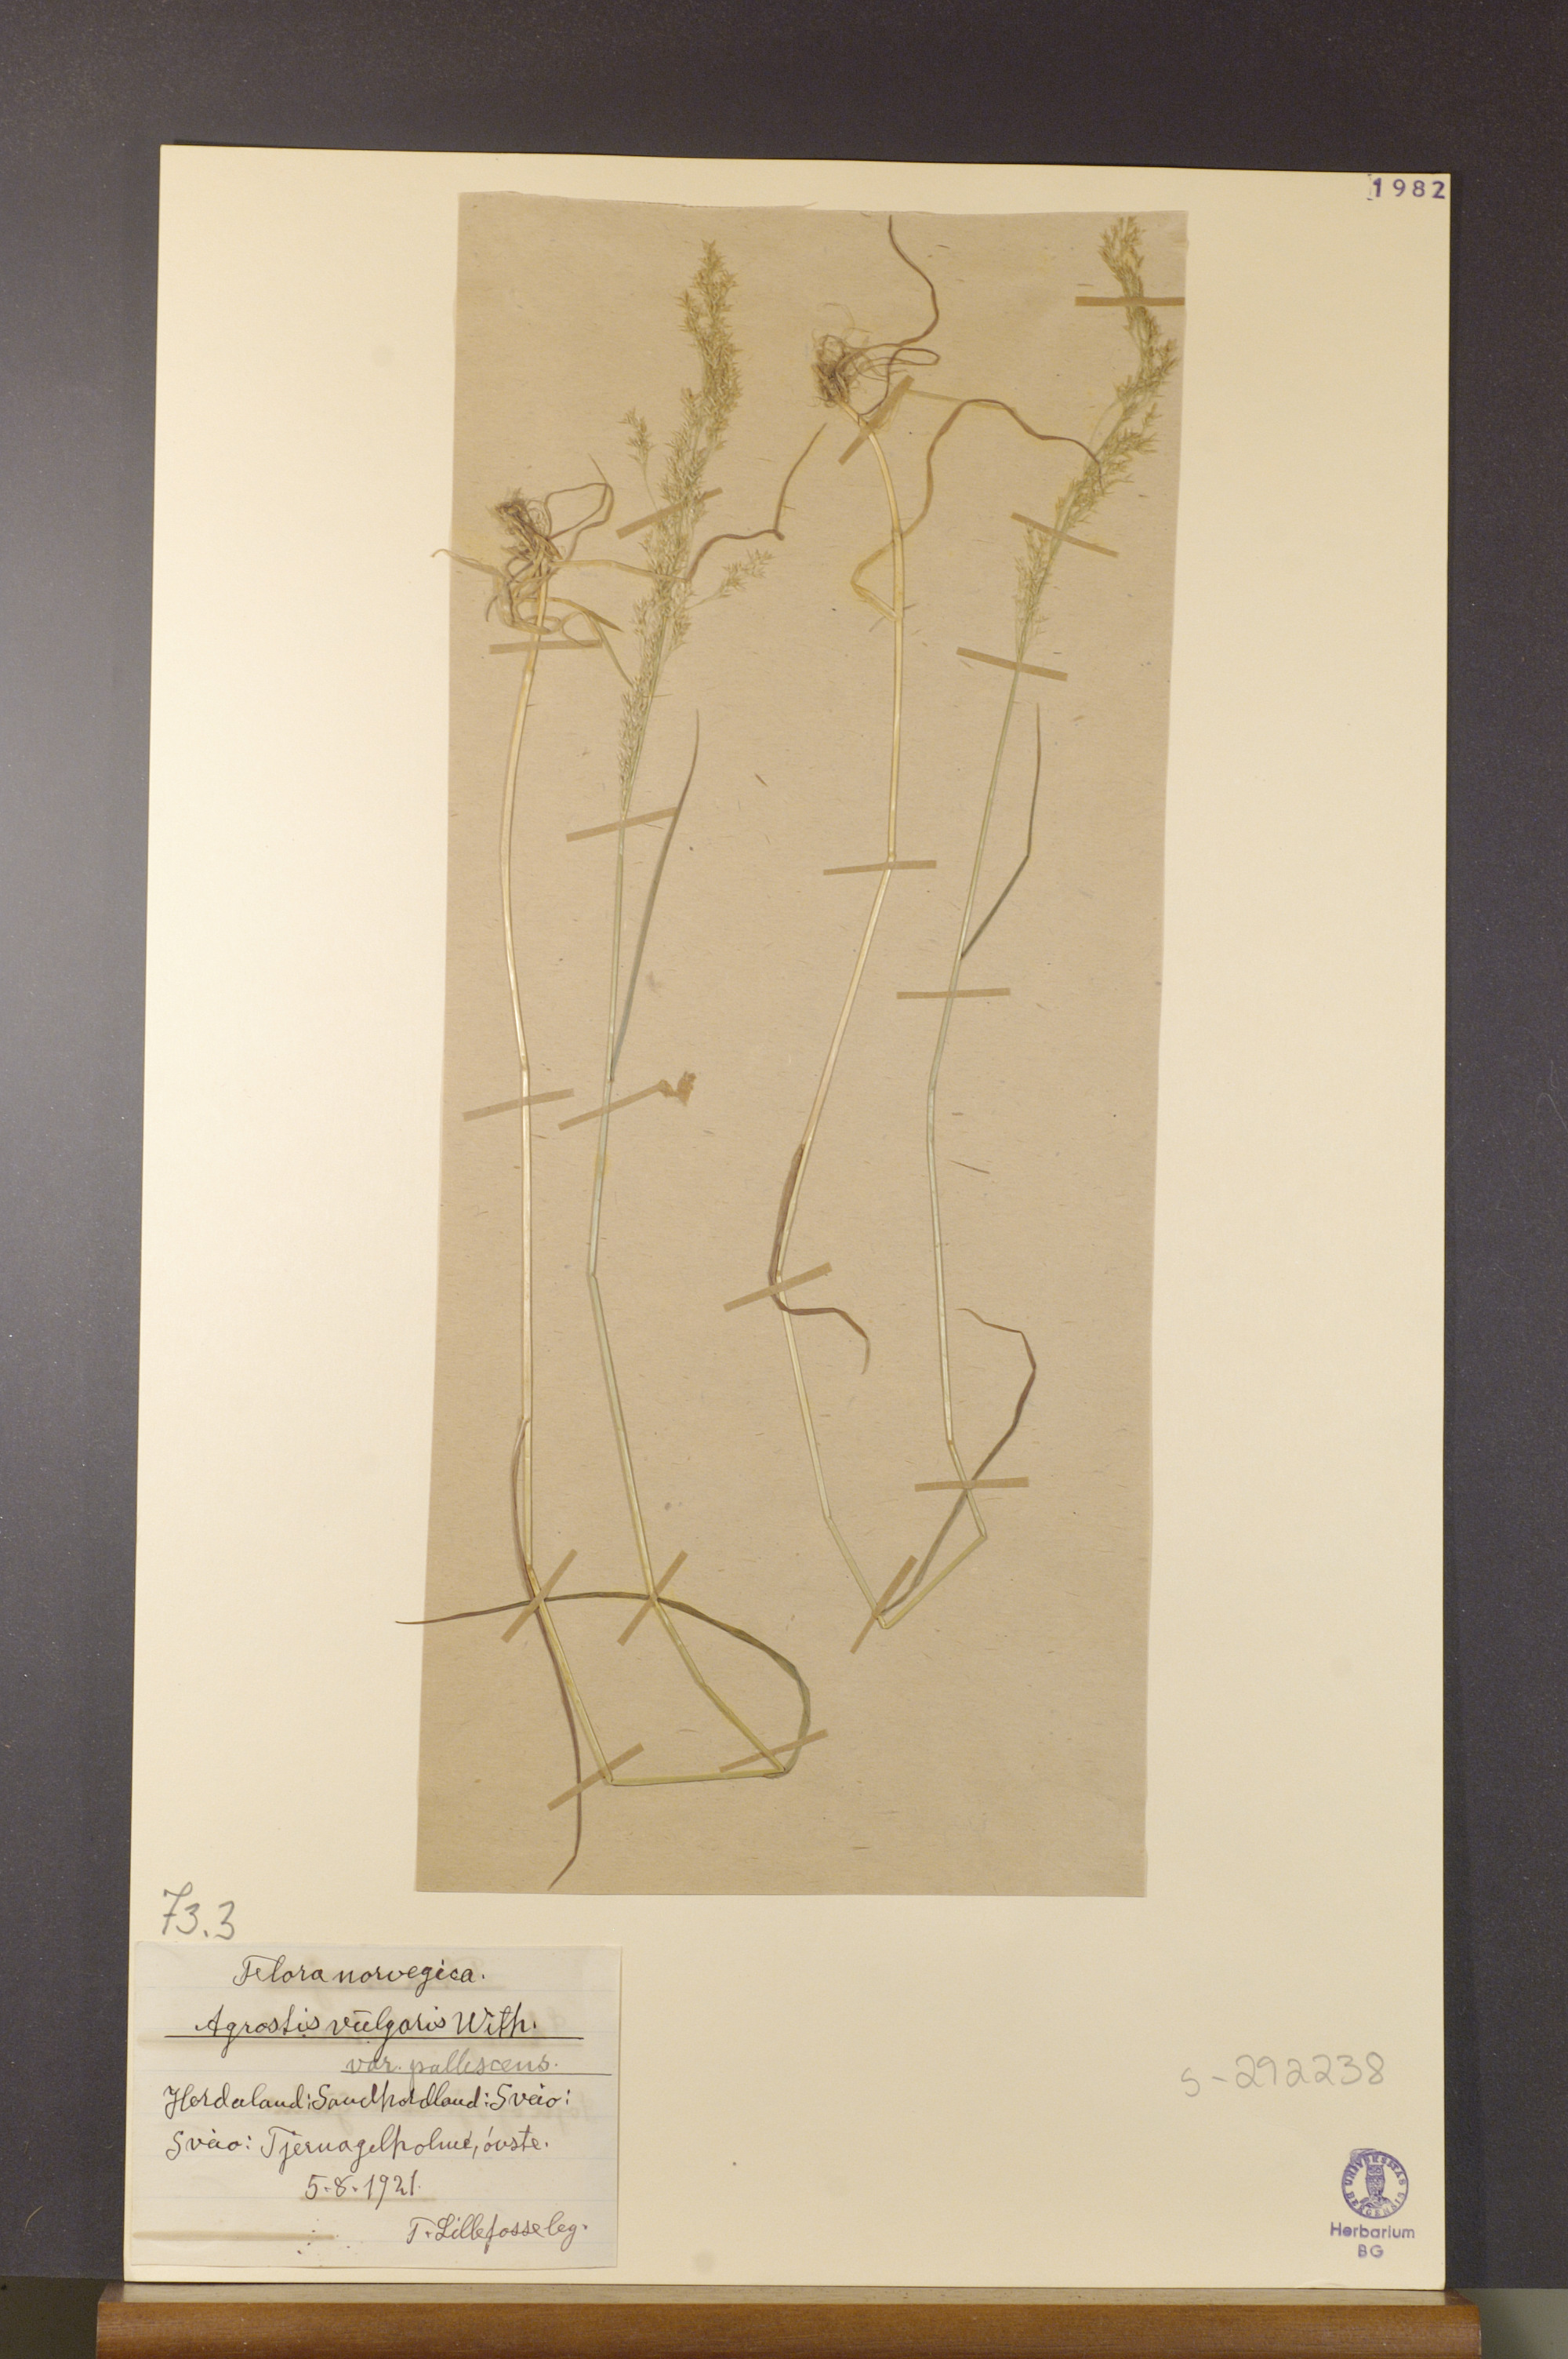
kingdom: Plantae
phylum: Tracheophyta
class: Liliopsida
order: Poales
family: Poaceae
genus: Agrostis
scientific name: Agrostis capillaris
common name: Colonial bentgrass
